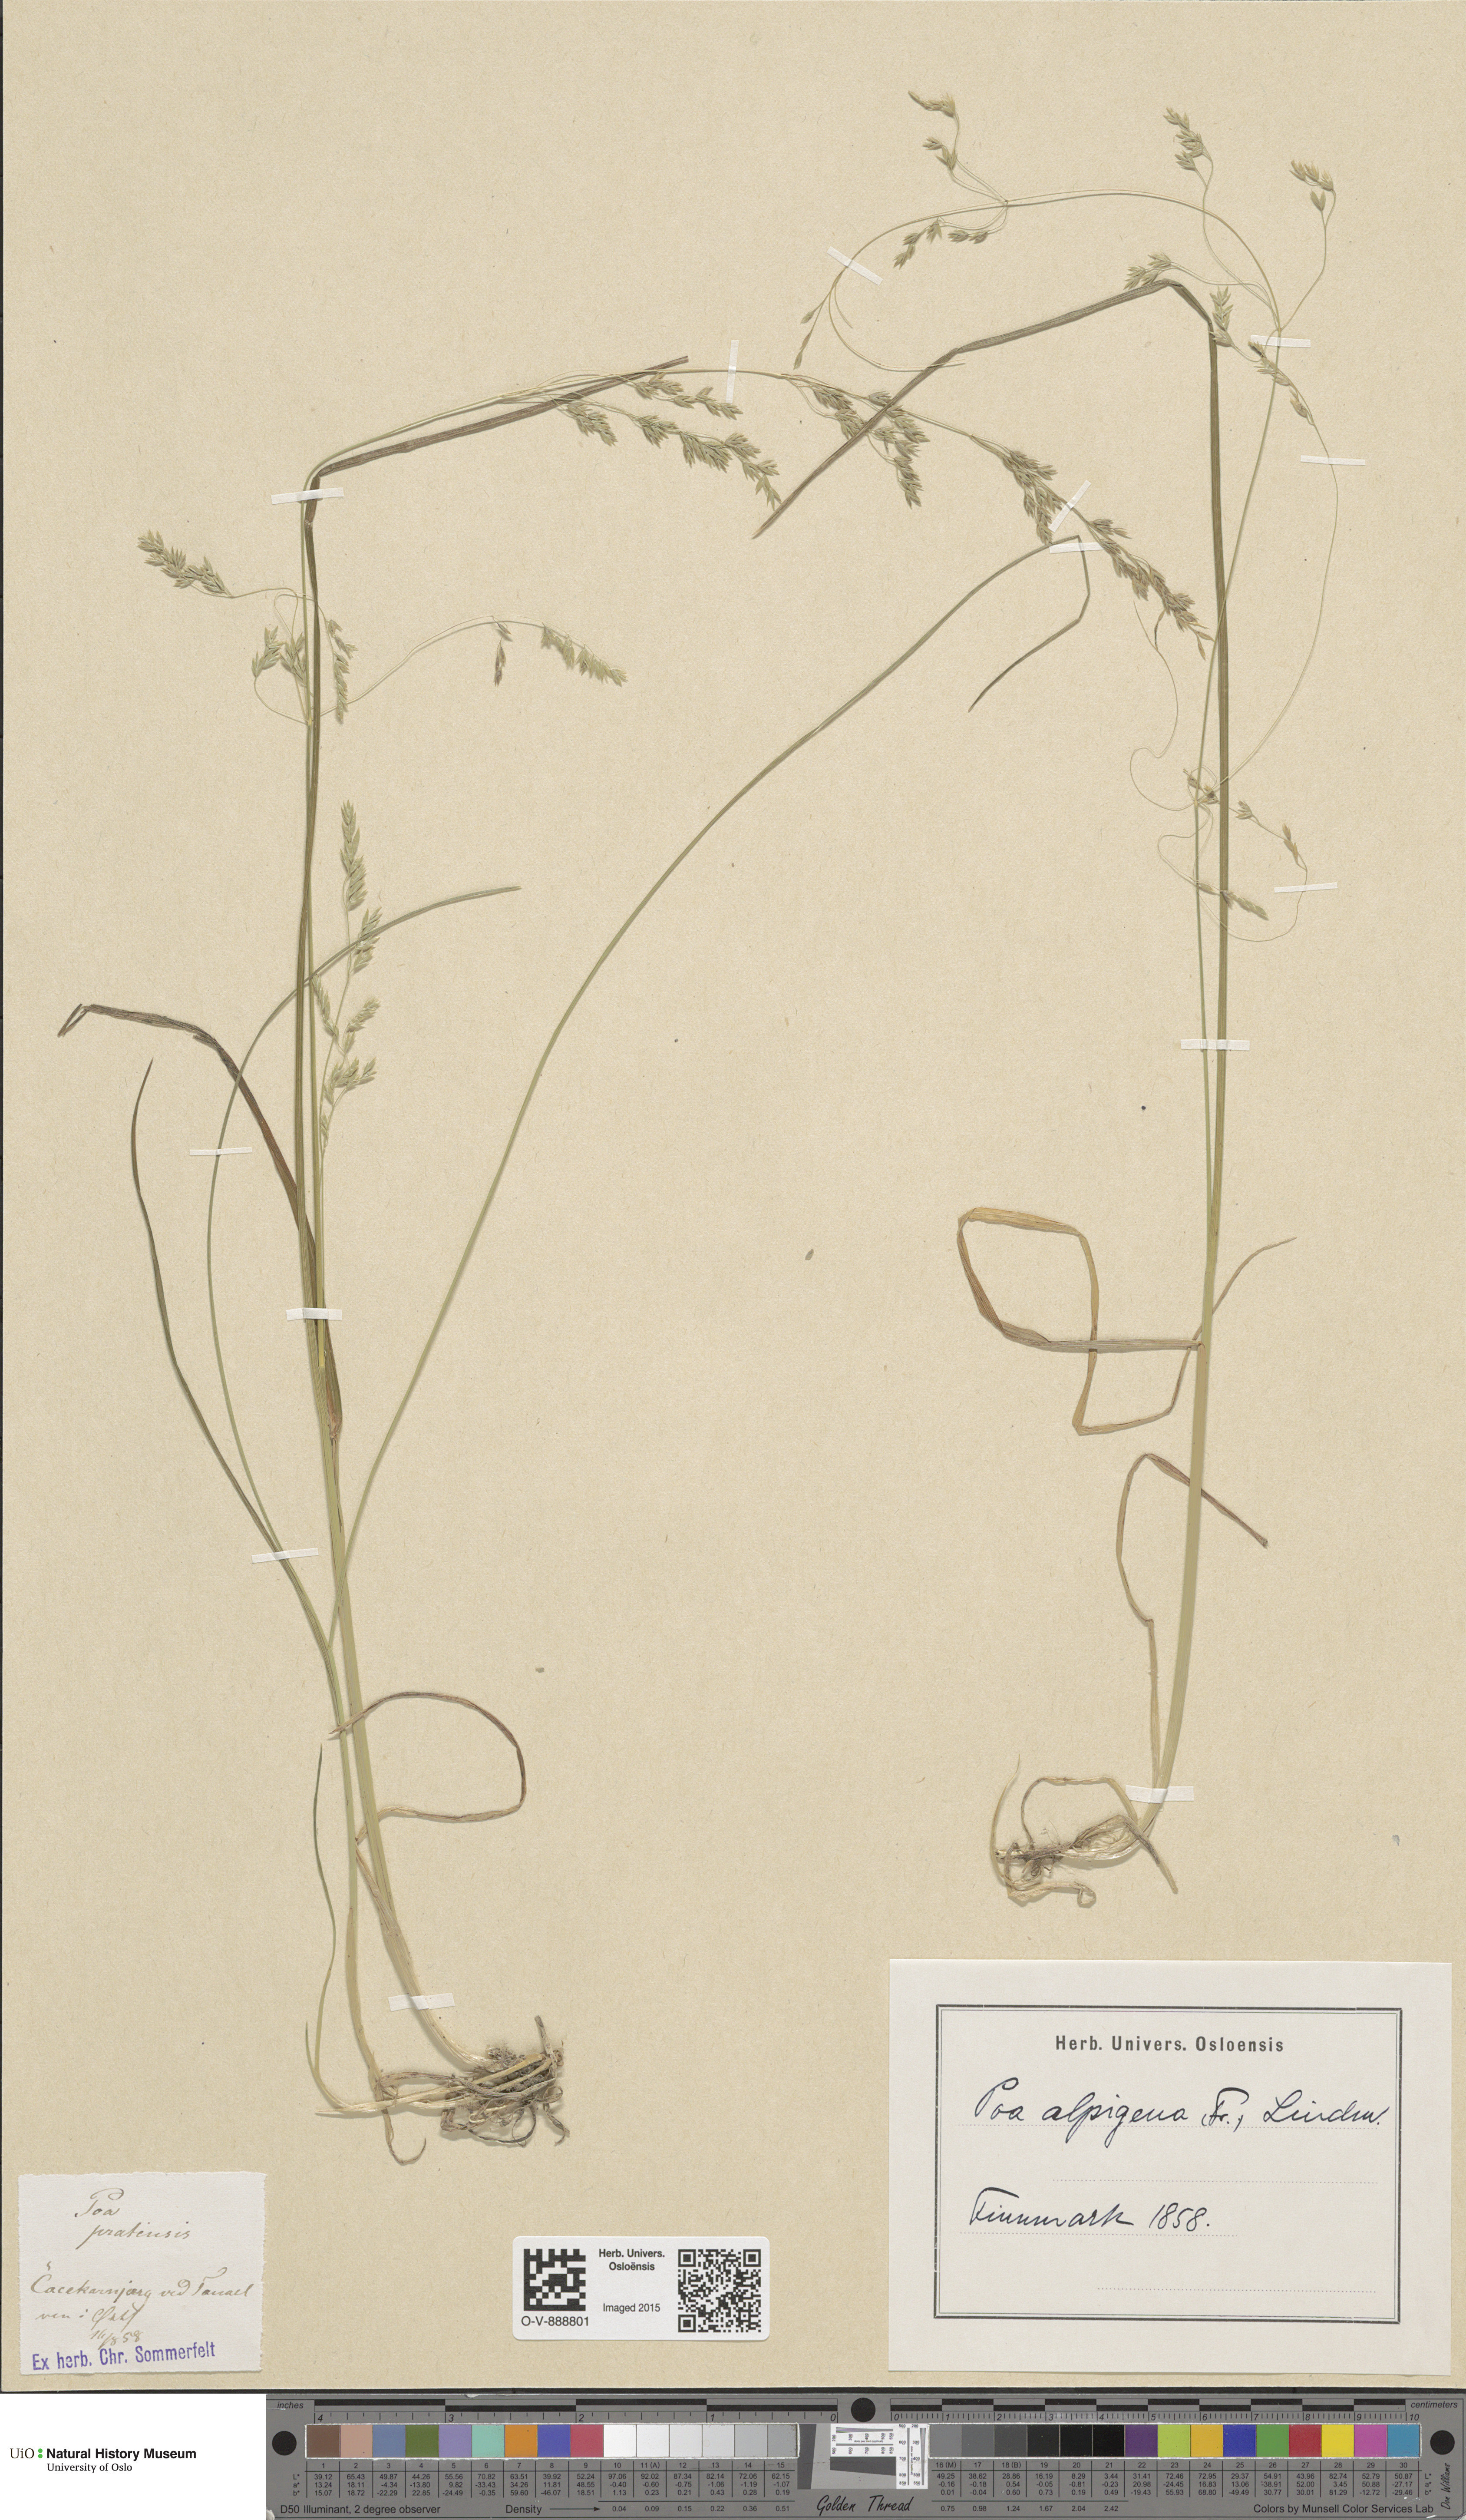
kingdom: Plantae
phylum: Tracheophyta
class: Liliopsida
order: Poales
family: Poaceae
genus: Poa
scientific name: Poa alpigena
